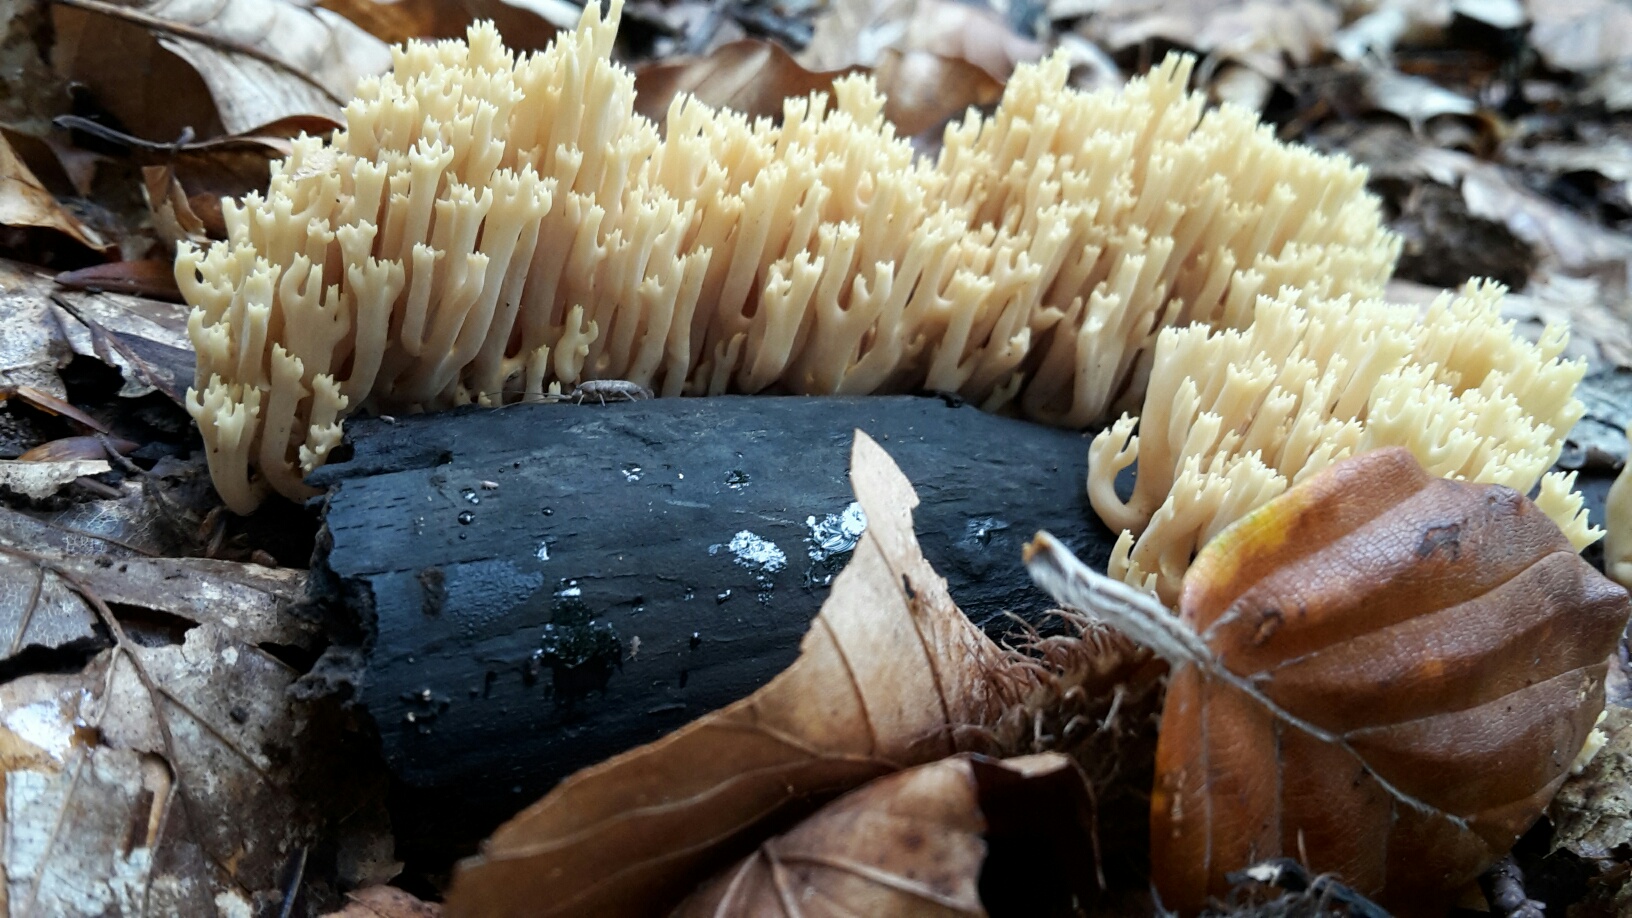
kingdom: Fungi
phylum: Basidiomycota
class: Agaricomycetes
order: Gomphales
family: Gomphaceae
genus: Ramaria
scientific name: Ramaria stricta
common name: rank koralsvamp
